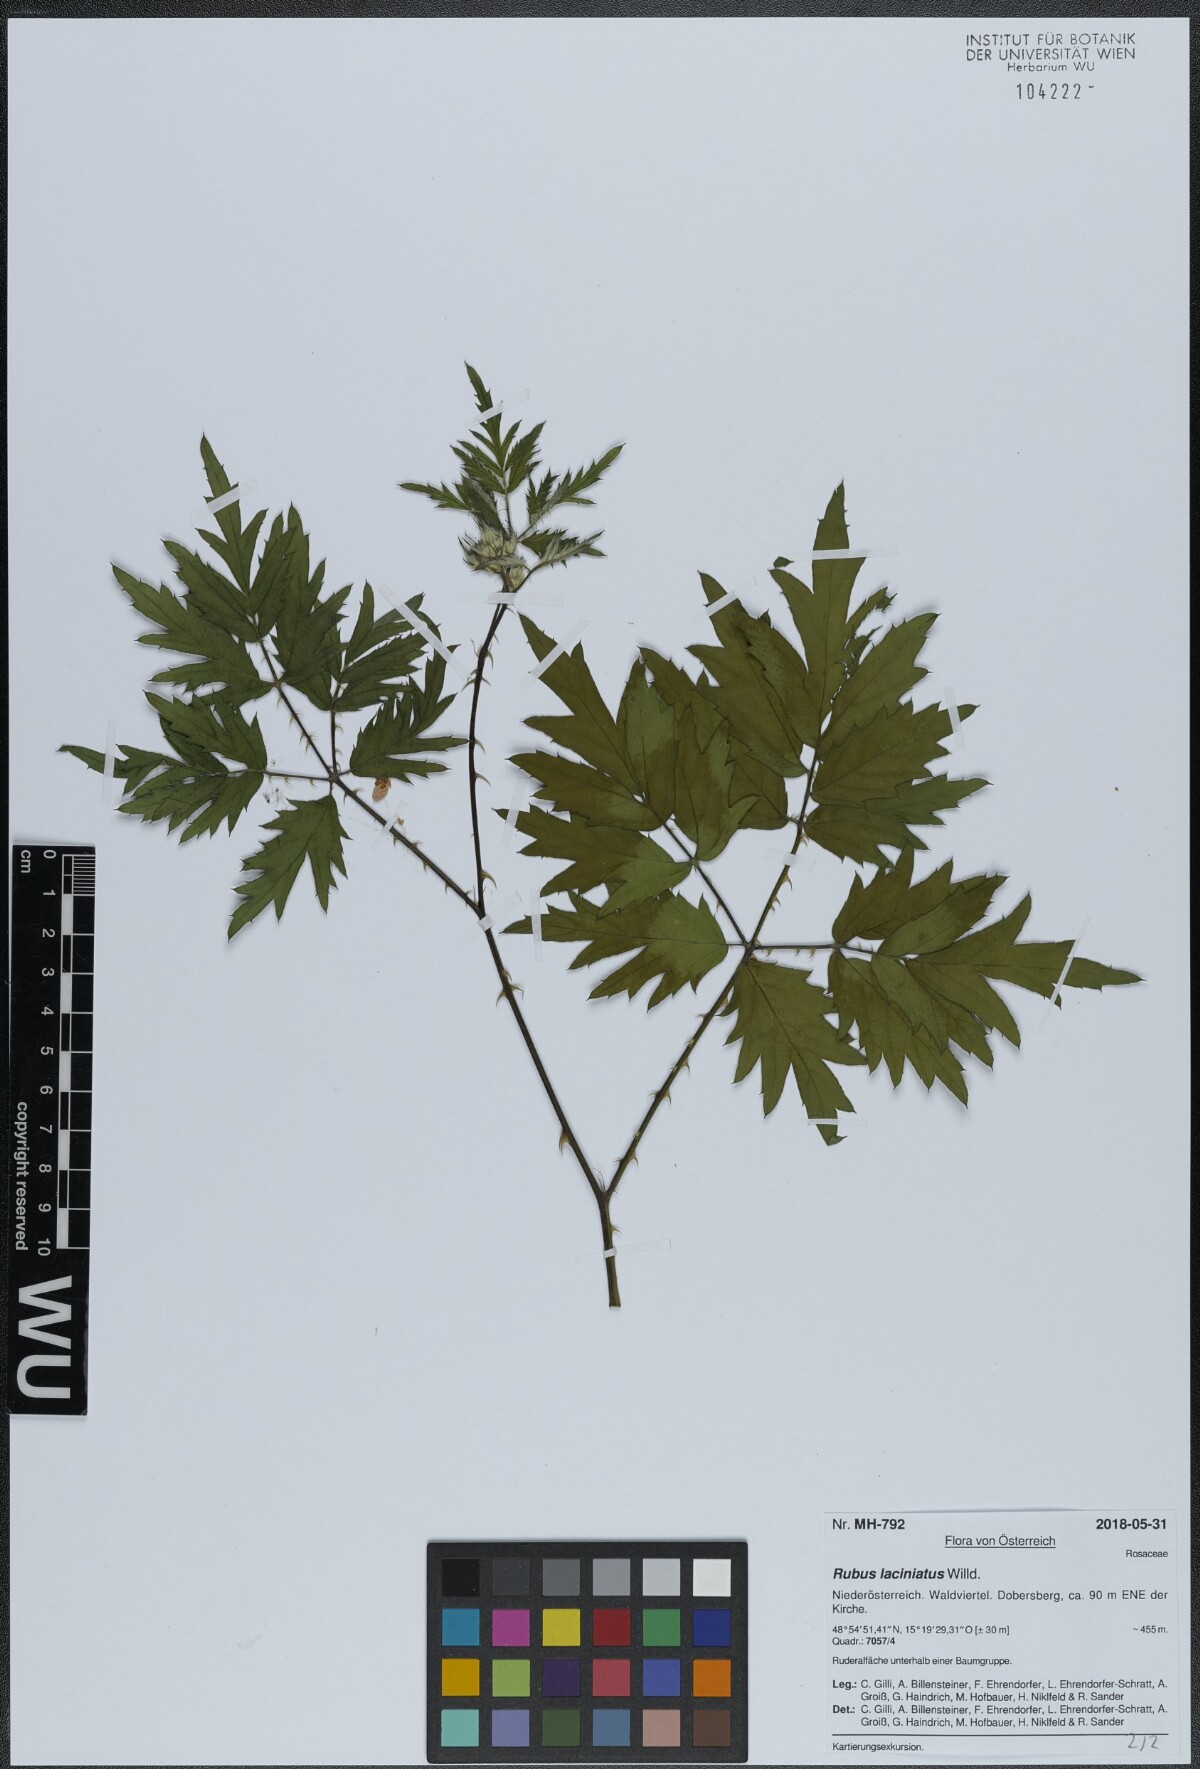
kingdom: Plantae
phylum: Tracheophyta
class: Magnoliopsida
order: Rosales
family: Rosaceae
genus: Rubus
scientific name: Rubus laciniatus
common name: Evergreen blackberry
